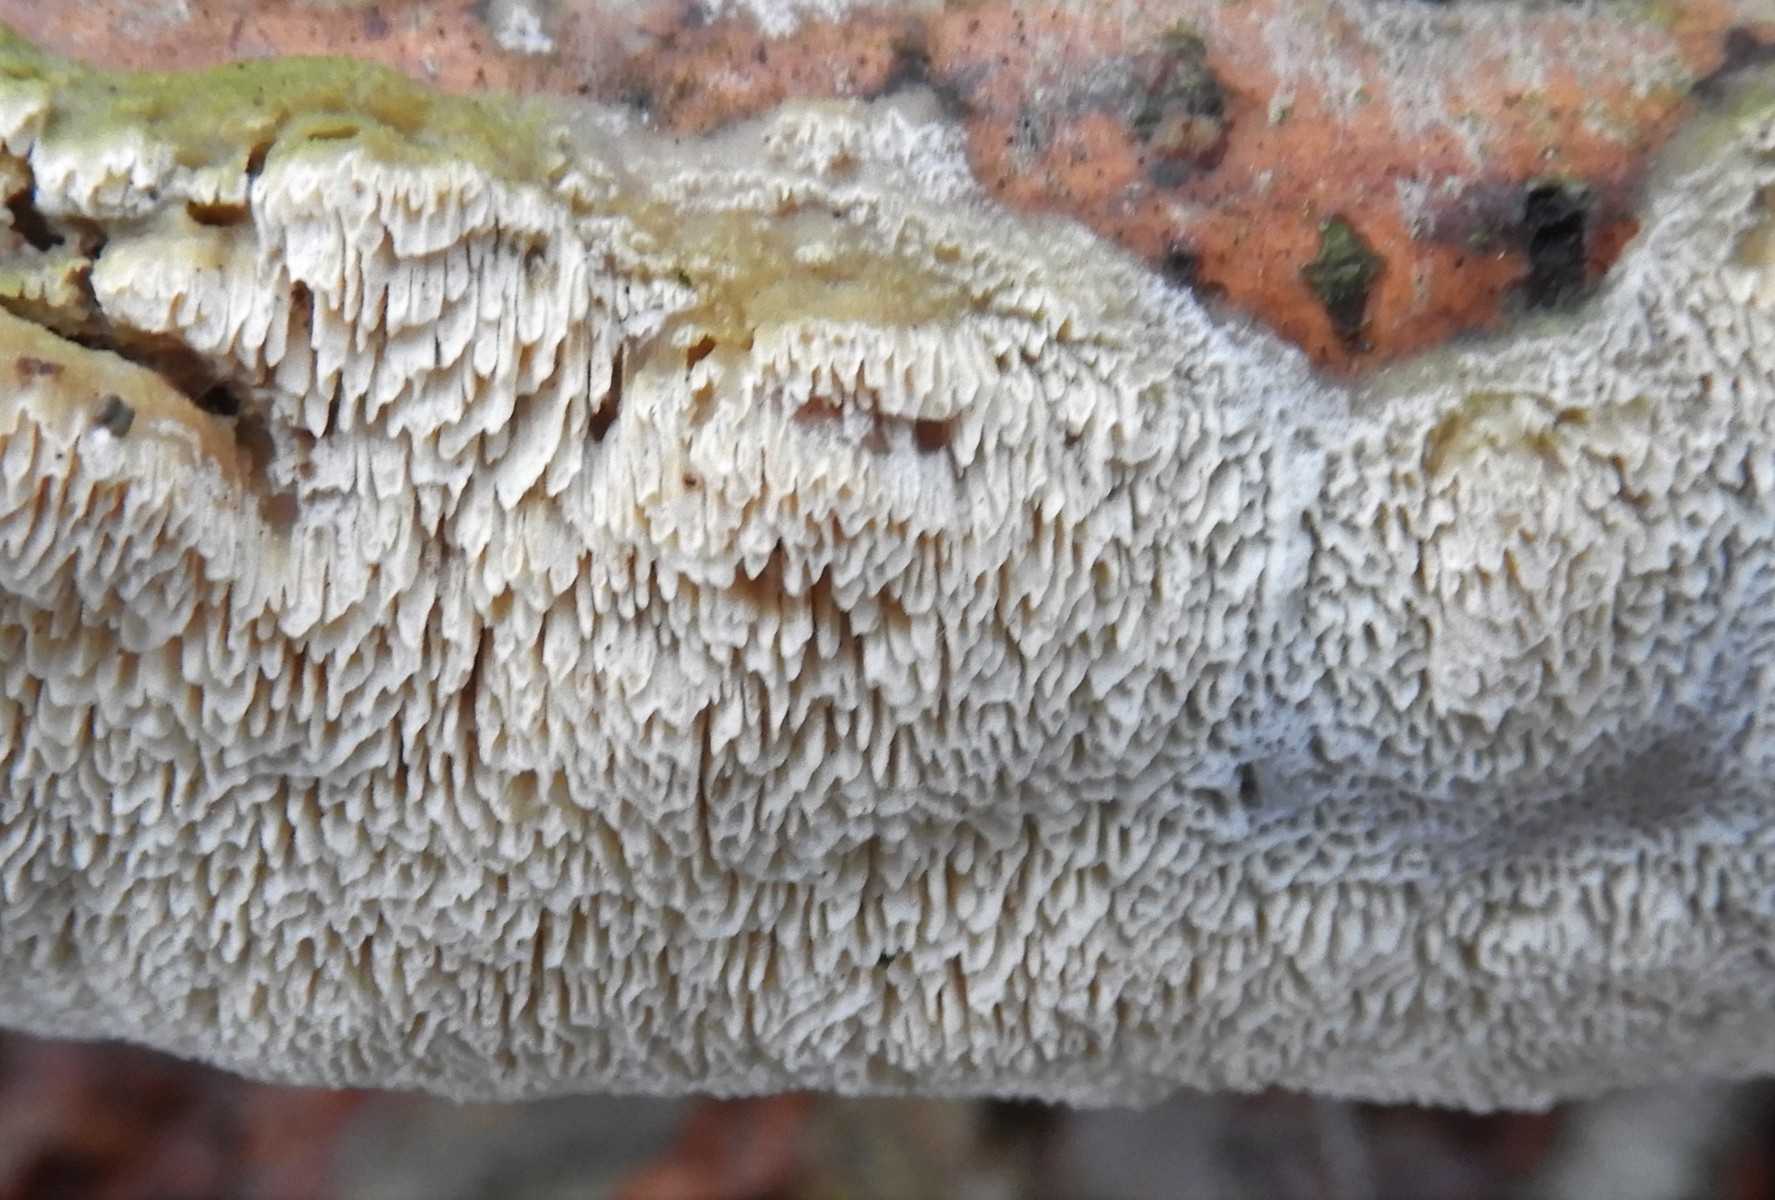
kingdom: Fungi
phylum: Basidiomycota
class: Agaricomycetes
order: Hymenochaetales
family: Schizoporaceae
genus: Schizopora
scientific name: Schizopora paradoxa
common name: hvid tandsvamp
